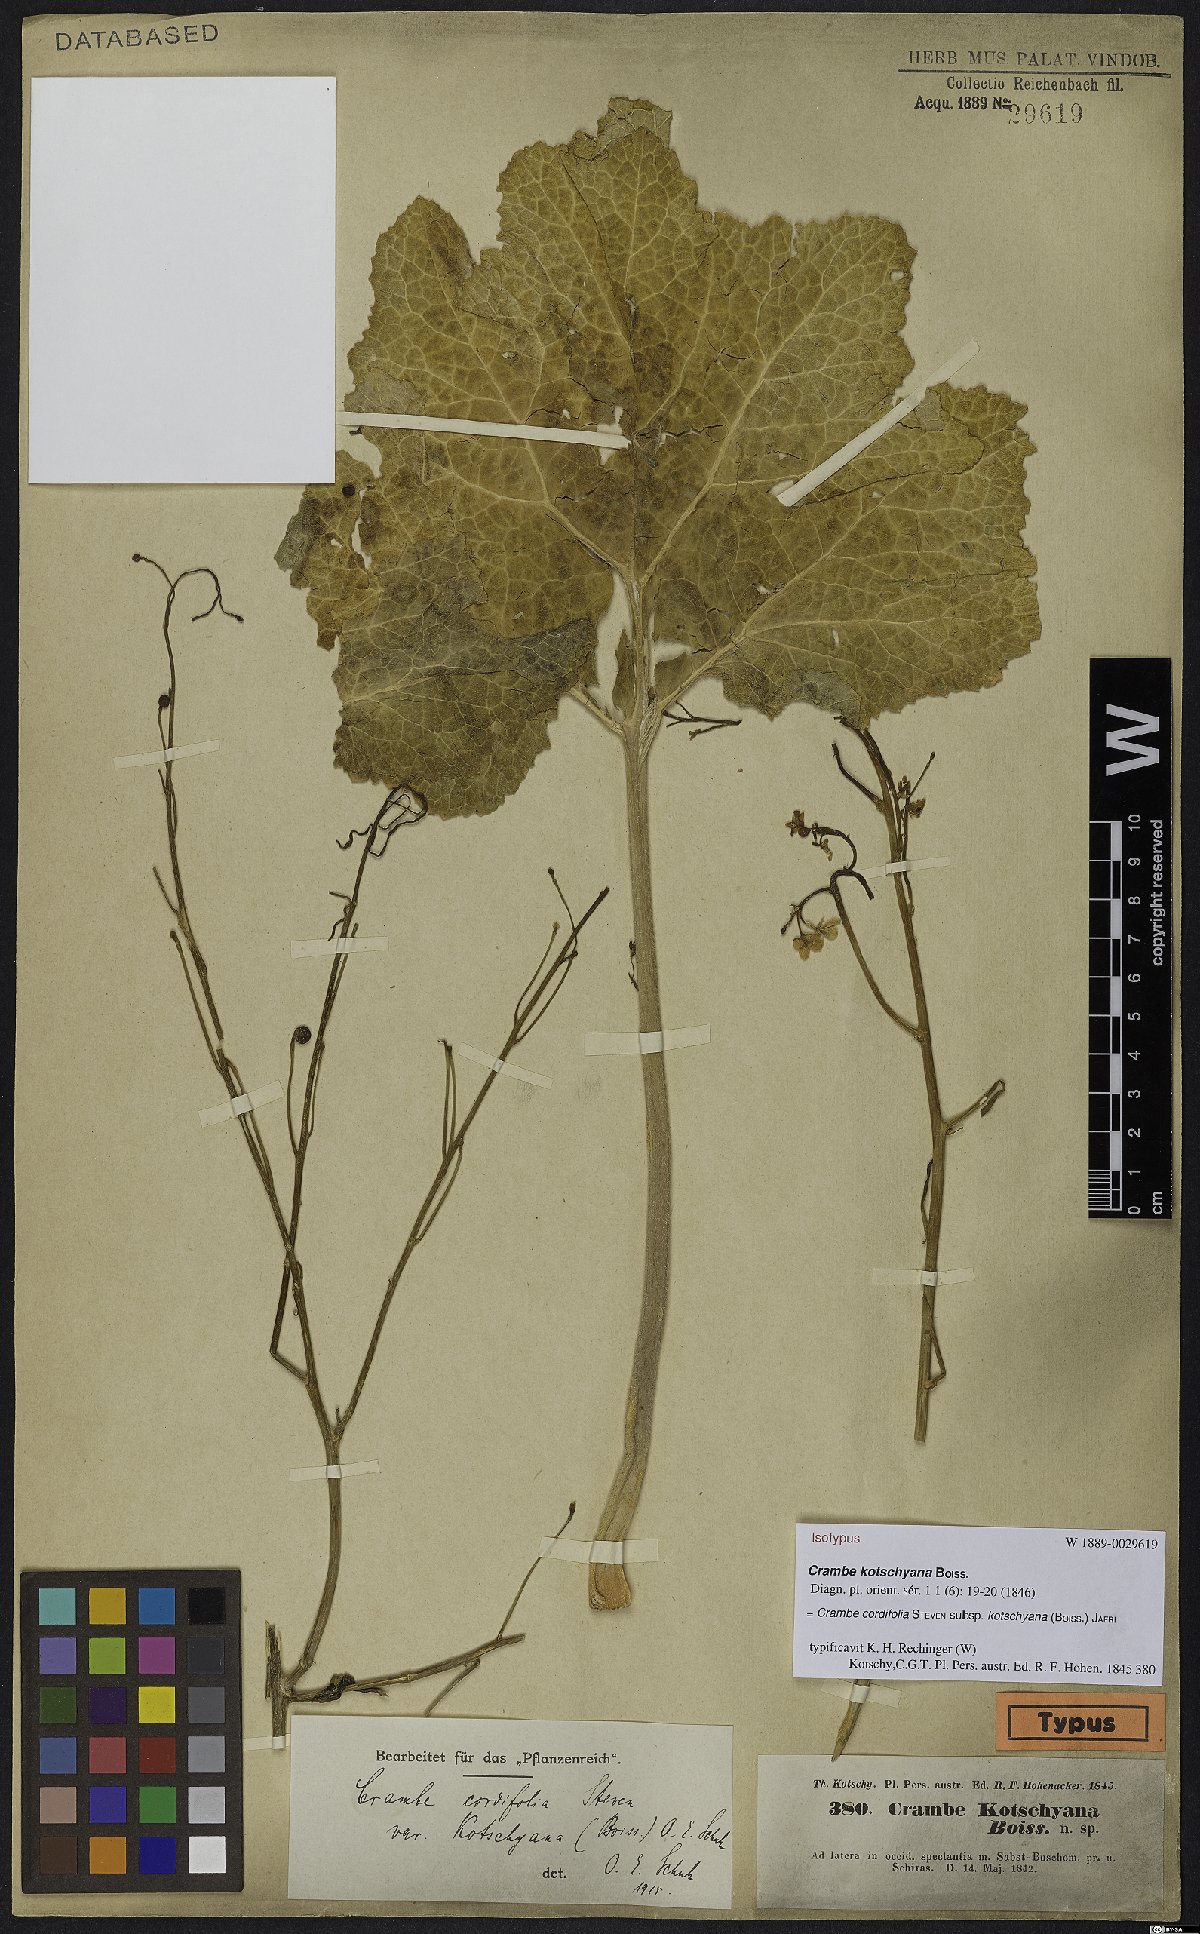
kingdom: Plantae
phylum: Tracheophyta
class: Magnoliopsida
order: Brassicales
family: Brassicaceae
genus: Crambe
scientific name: Crambe kotschyana
